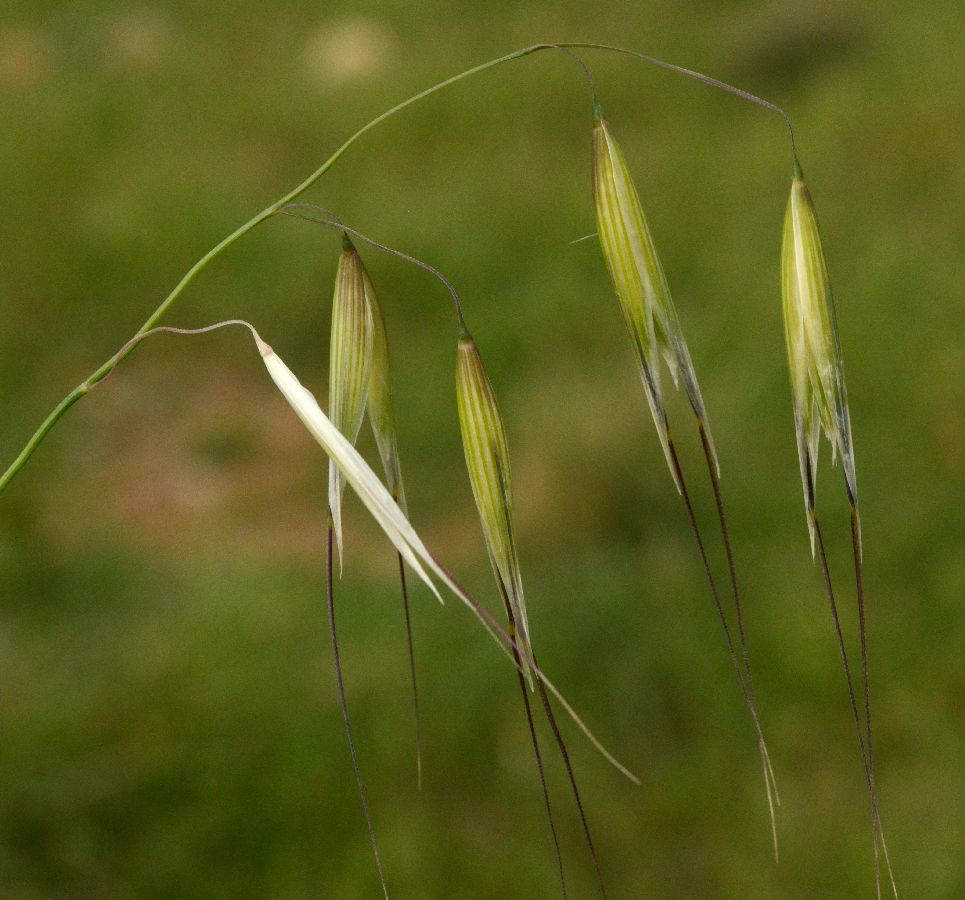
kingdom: Plantae
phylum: Tracheophyta
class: Liliopsida
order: Poales
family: Poaceae
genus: Avena
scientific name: Avena sterilis
